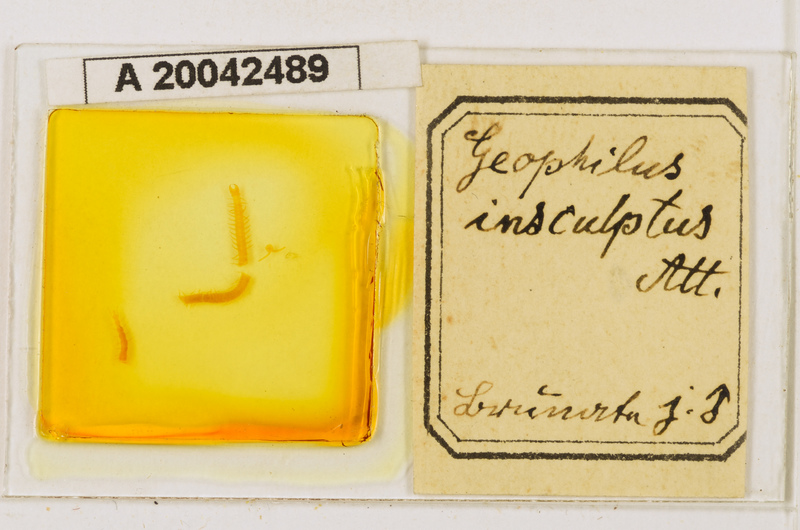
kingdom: Animalia
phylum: Arthropoda
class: Chilopoda
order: Geophilomorpha
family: Geophilidae
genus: Geophilus
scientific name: Geophilus insculptus
